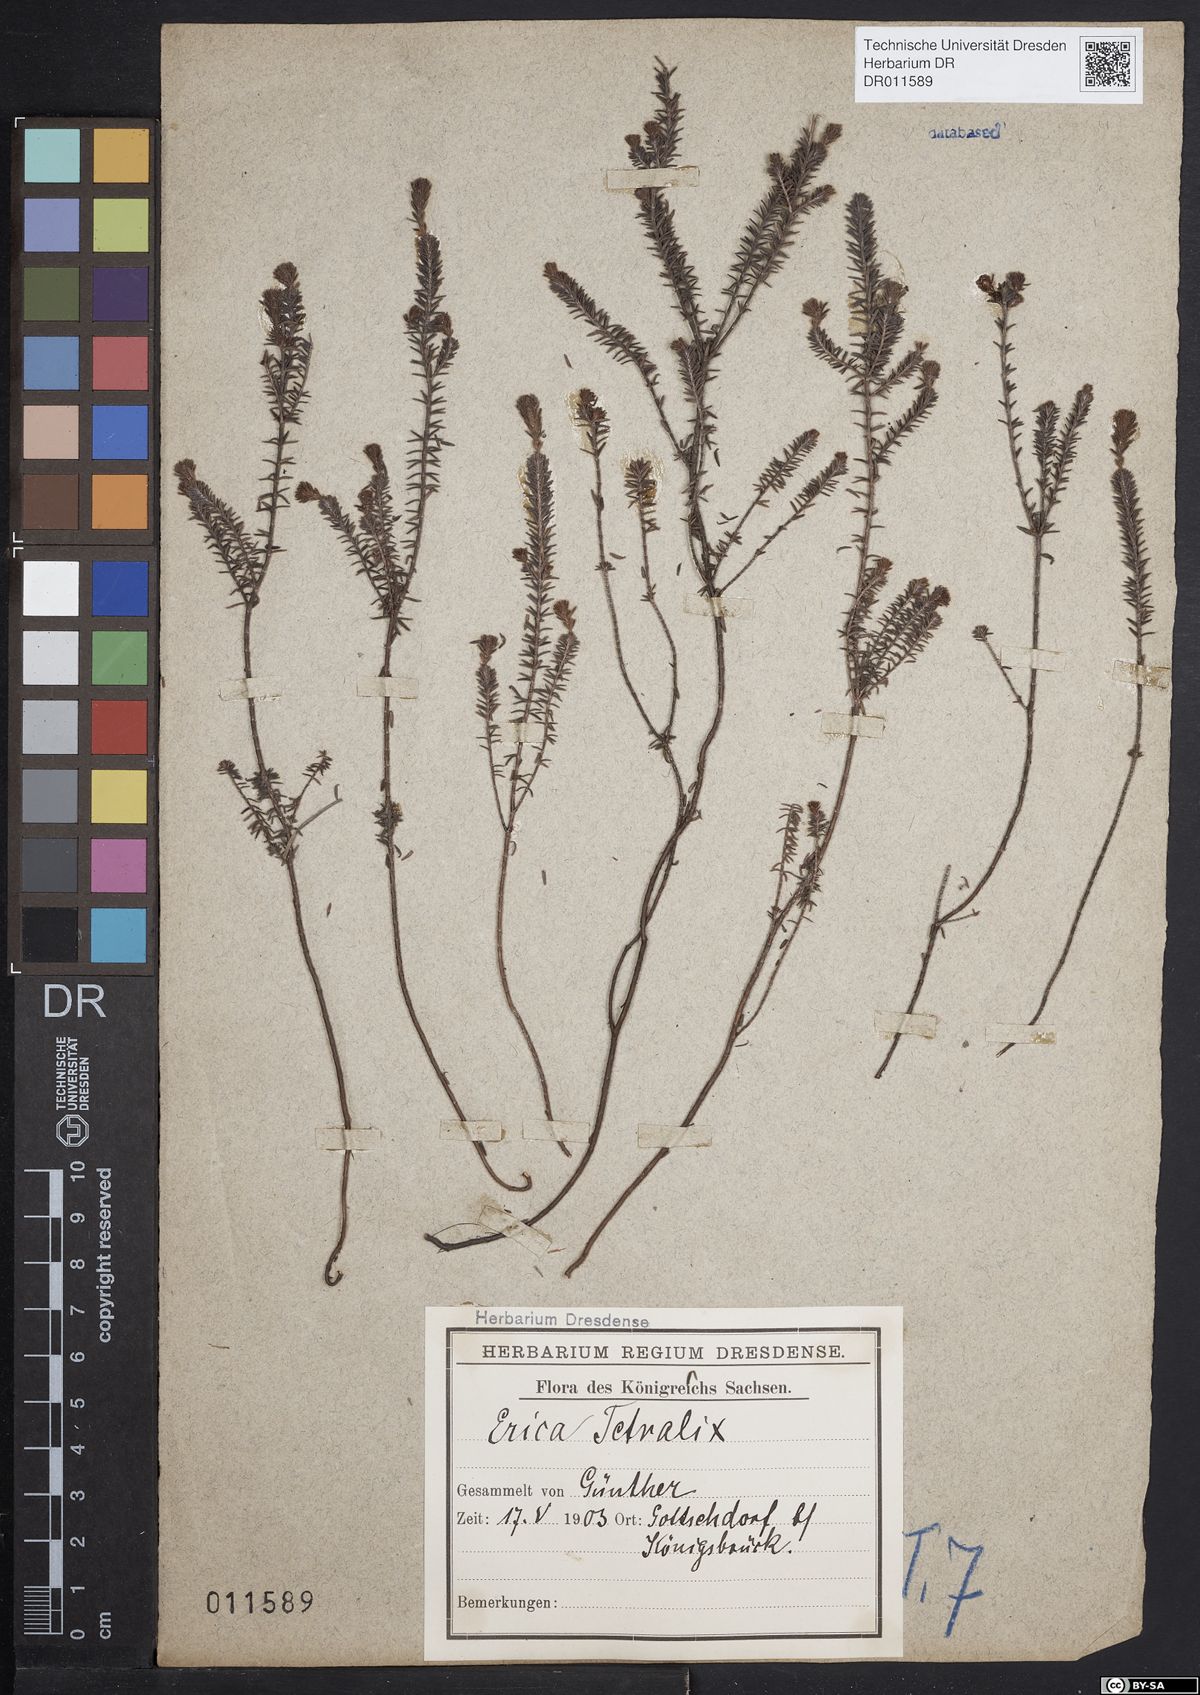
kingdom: Plantae
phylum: Tracheophyta
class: Magnoliopsida
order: Ericales
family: Ericaceae
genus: Erica
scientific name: Erica tetralix
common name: Cross-leaved heath
